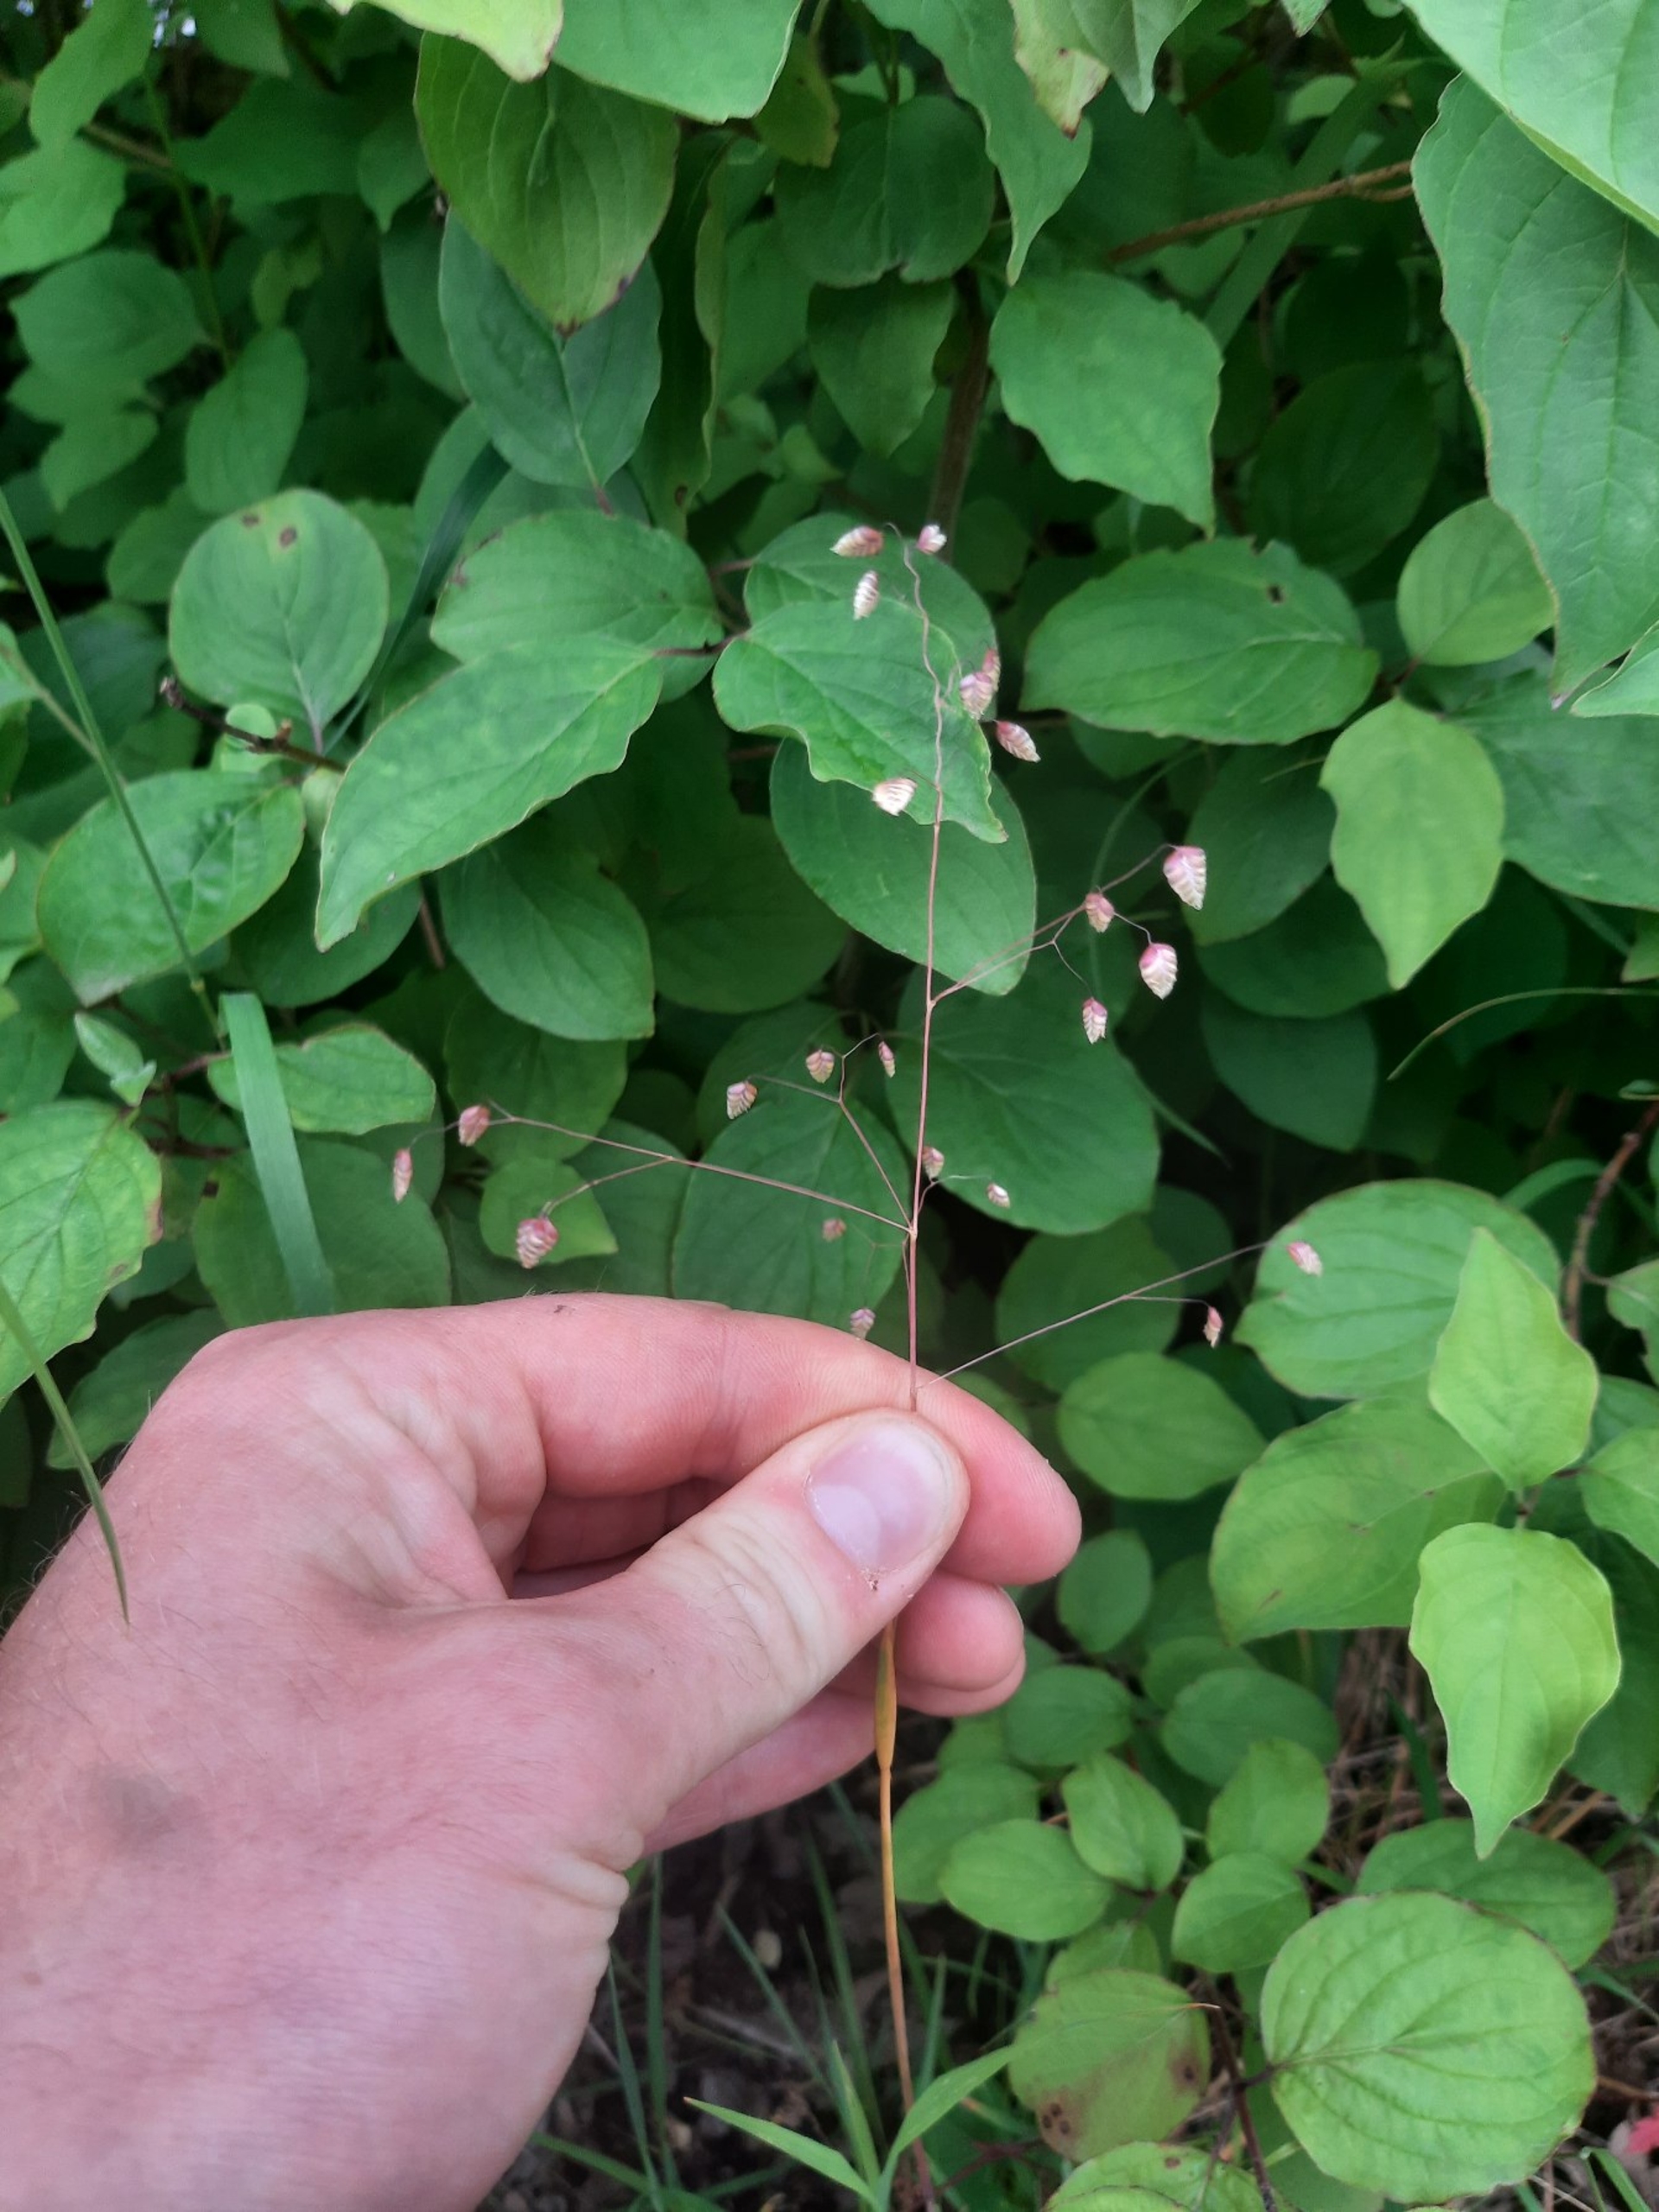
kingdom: Plantae
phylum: Tracheophyta
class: Liliopsida
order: Poales
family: Poaceae
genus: Briza
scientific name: Briza media
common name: Hjertegræs
